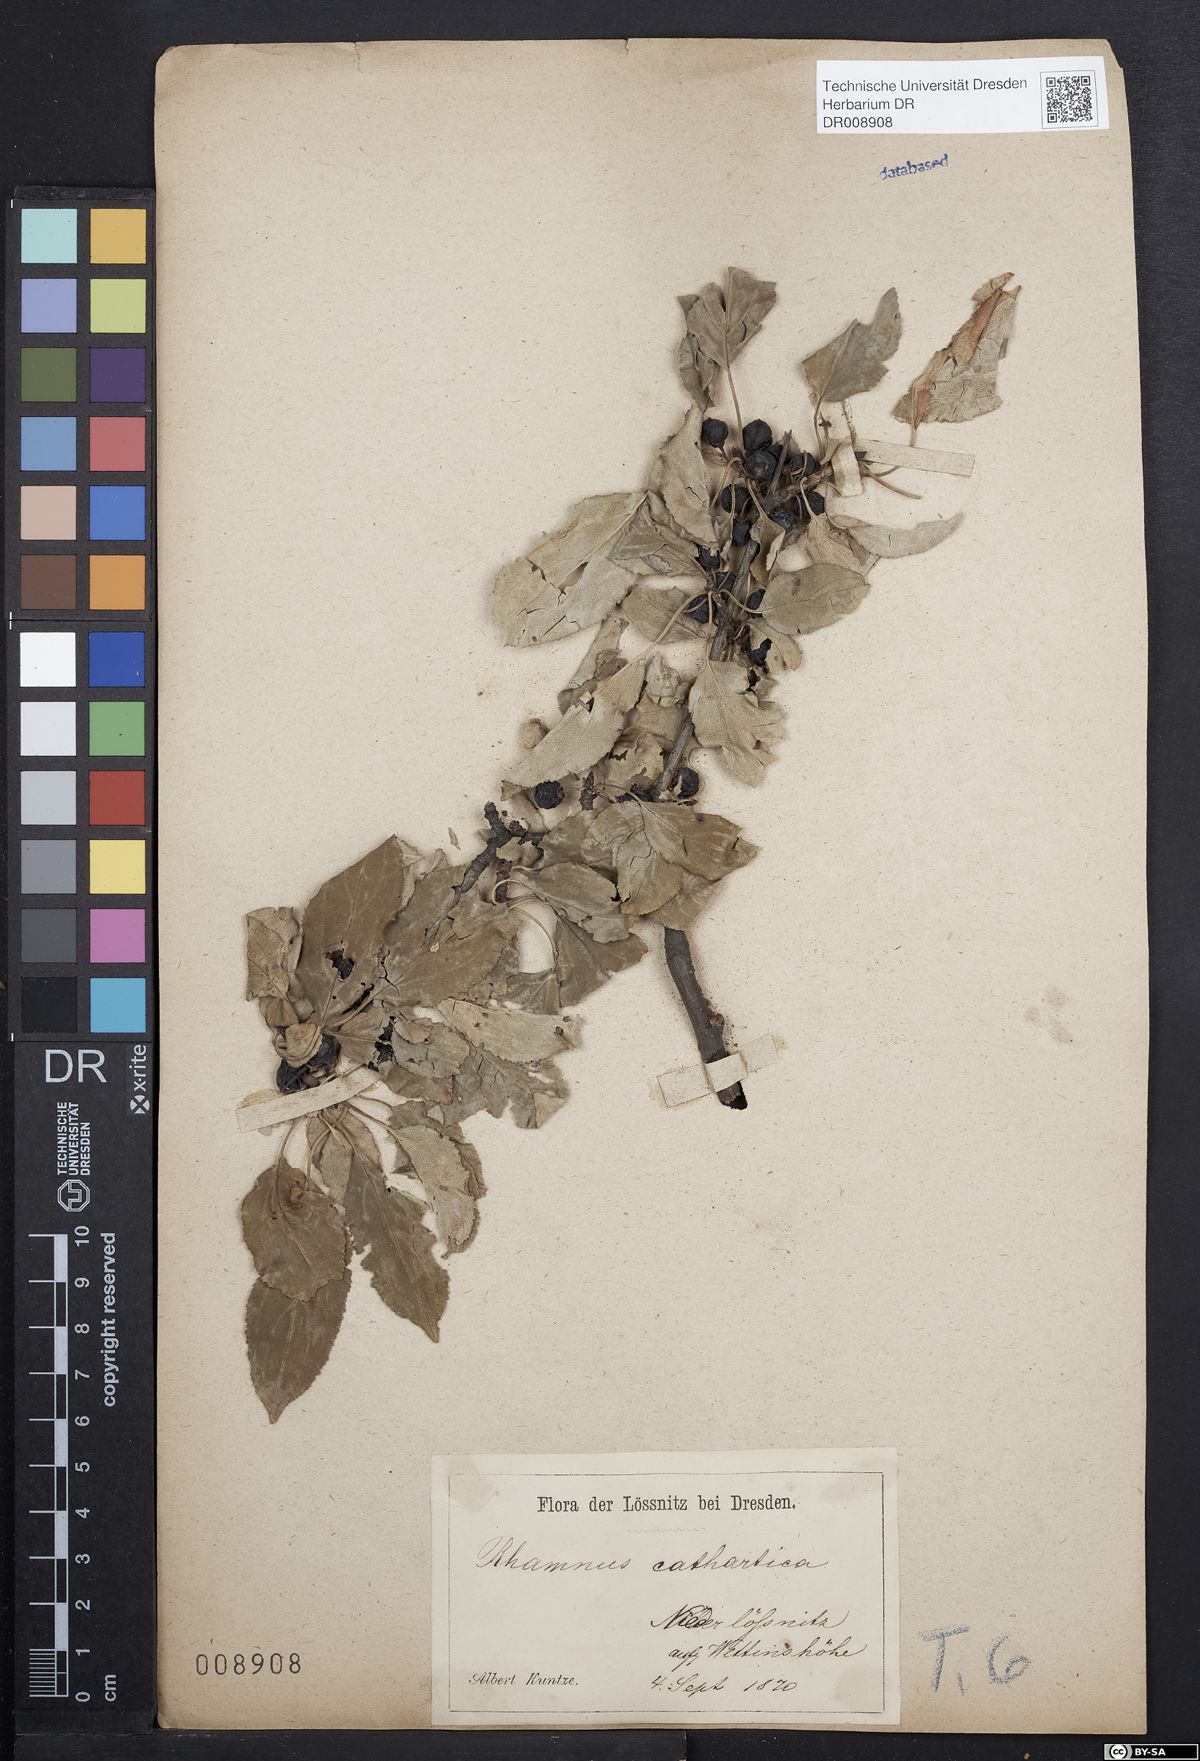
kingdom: Plantae
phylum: Tracheophyta
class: Magnoliopsida
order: Rosales
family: Rhamnaceae
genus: Rhamnus
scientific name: Rhamnus cathartica
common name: Common buckthorn
